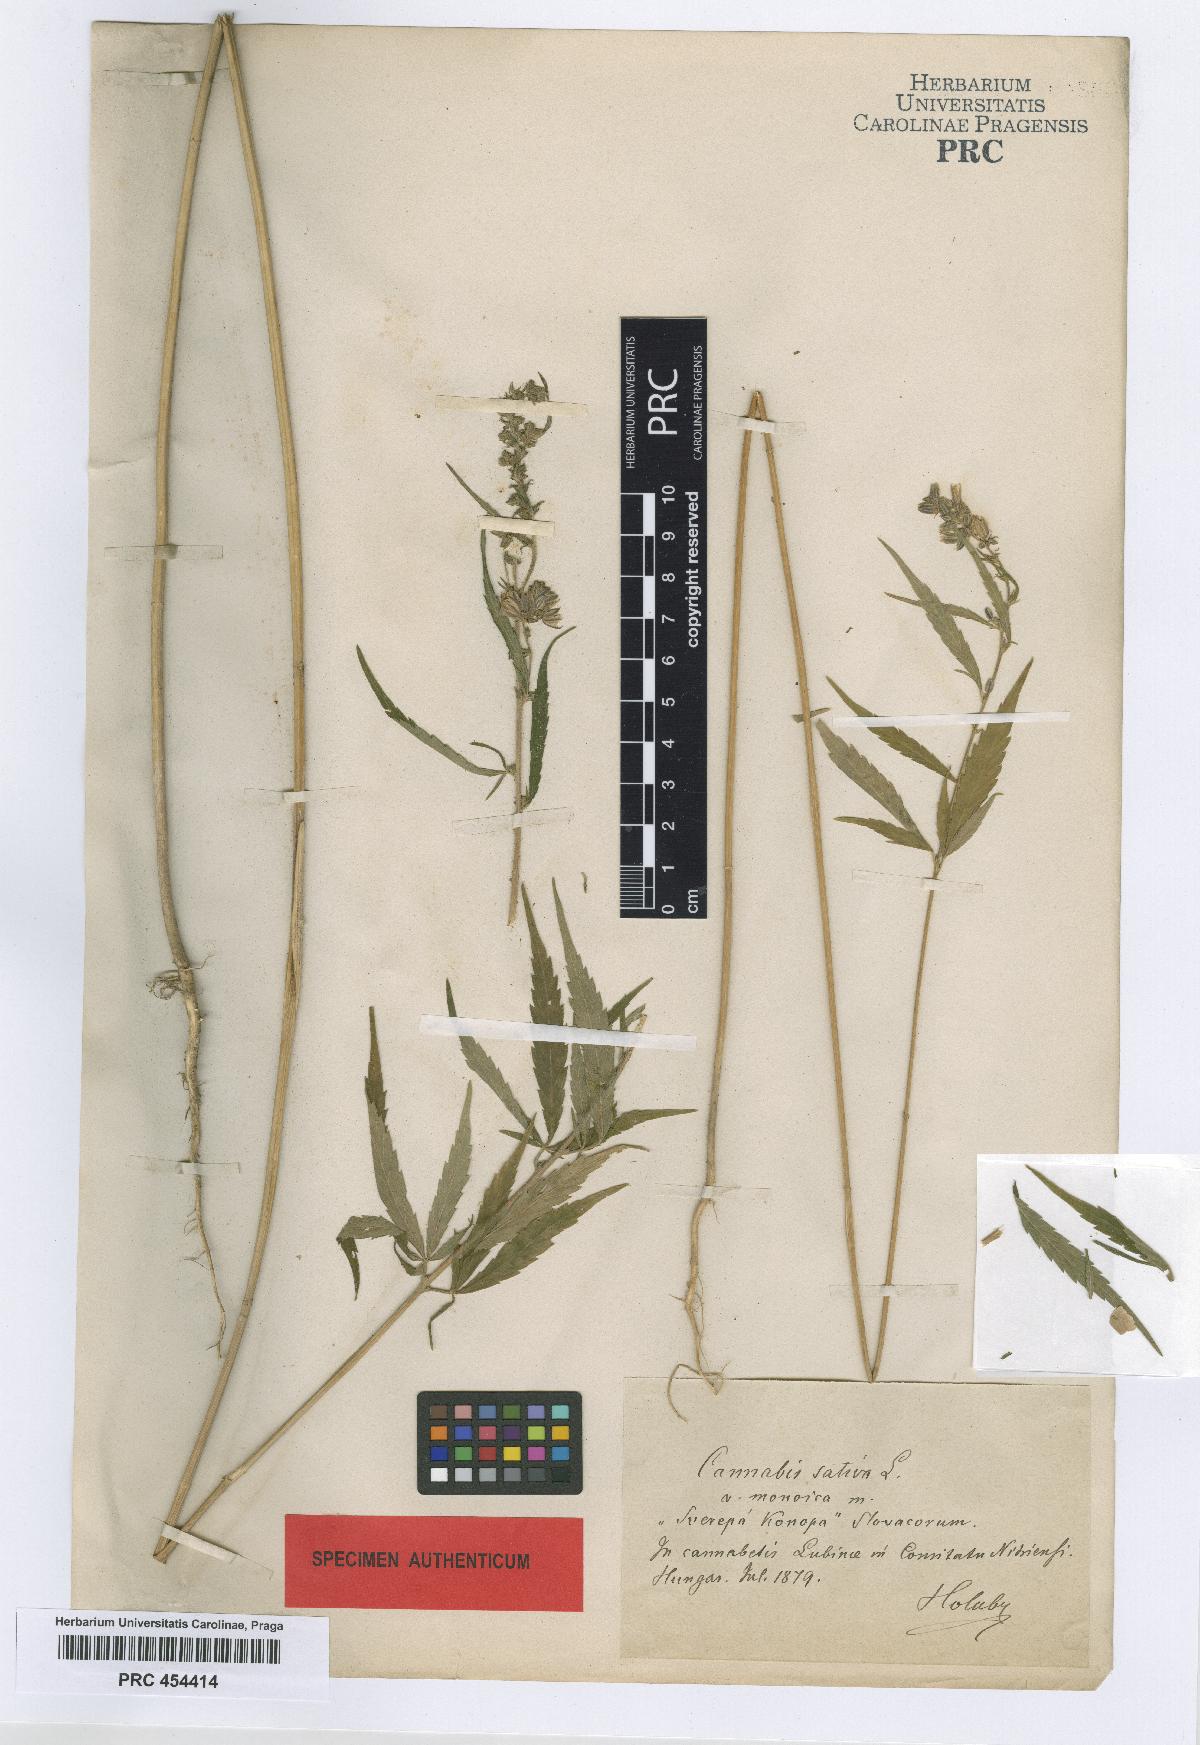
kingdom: Plantae
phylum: Tracheophyta
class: Magnoliopsida
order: Rosales
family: Cannabaceae
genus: Cannabis
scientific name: Cannabis sativa
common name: Hemp
